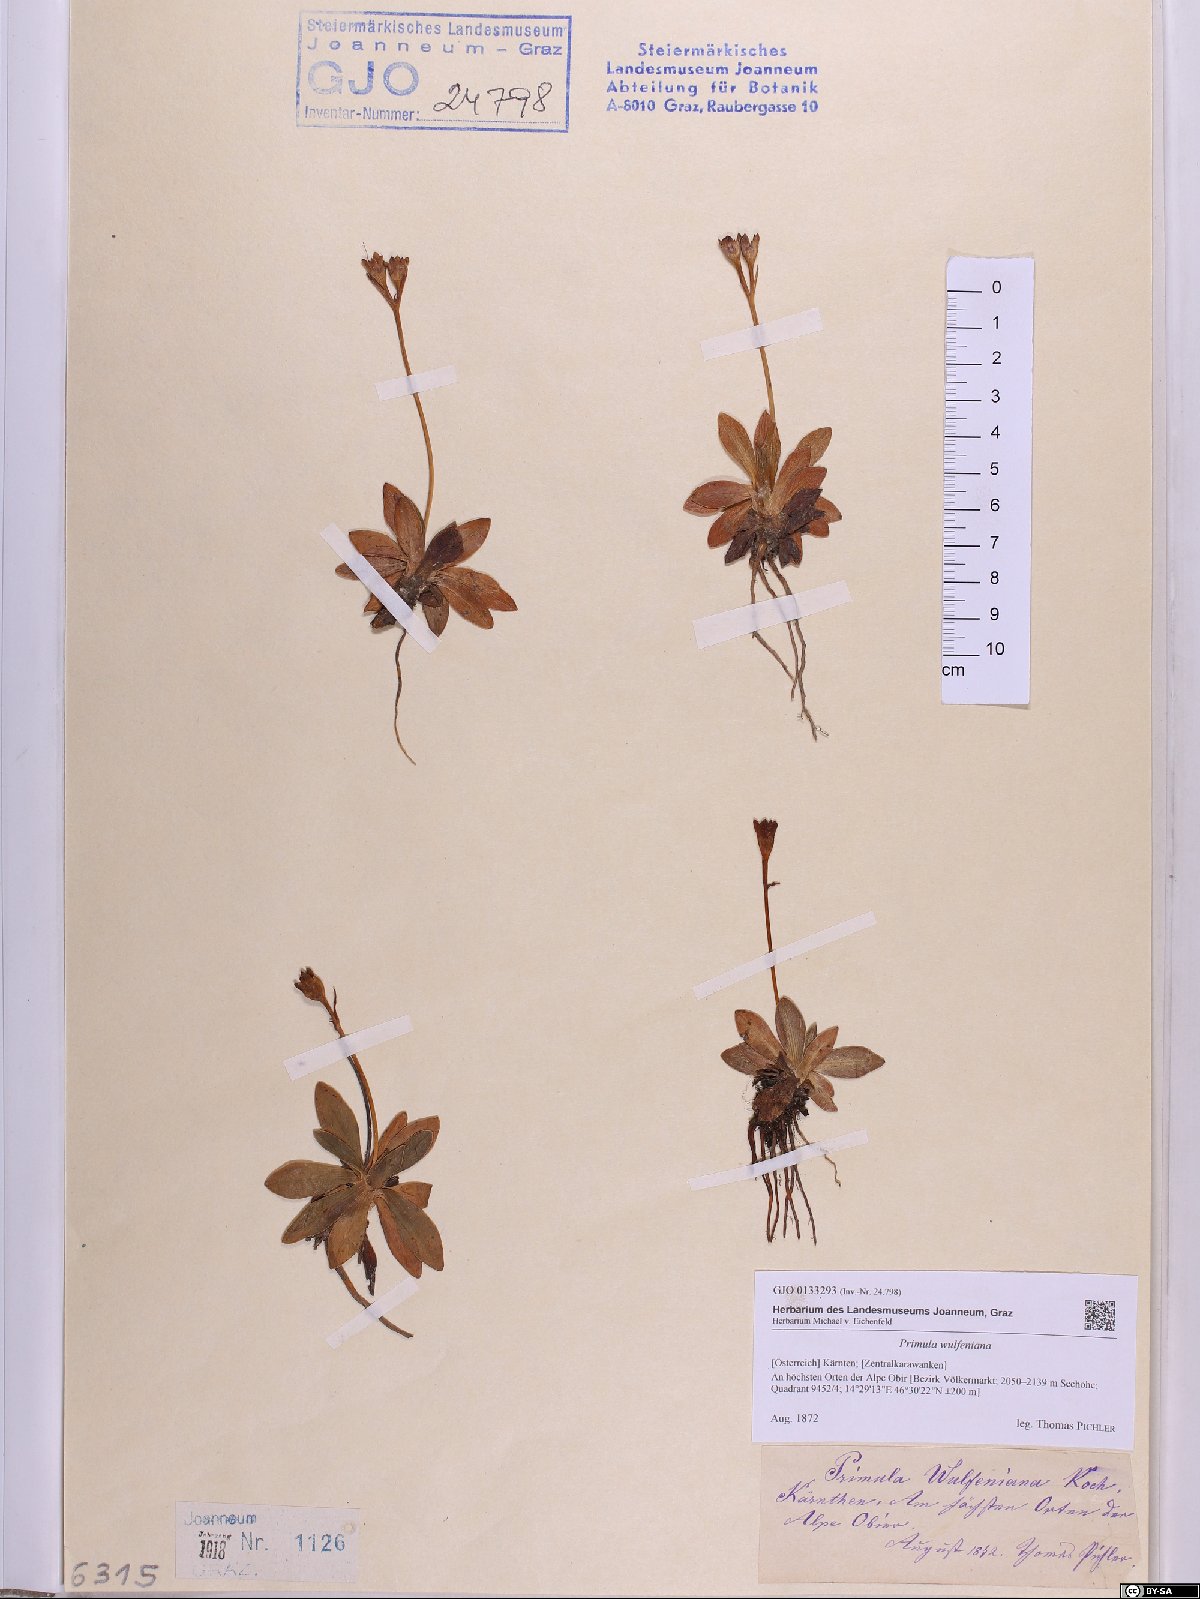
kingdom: Plantae
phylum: Tracheophyta
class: Magnoliopsida
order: Ericales
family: Primulaceae
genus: Primula
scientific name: Primula wulfeniana
